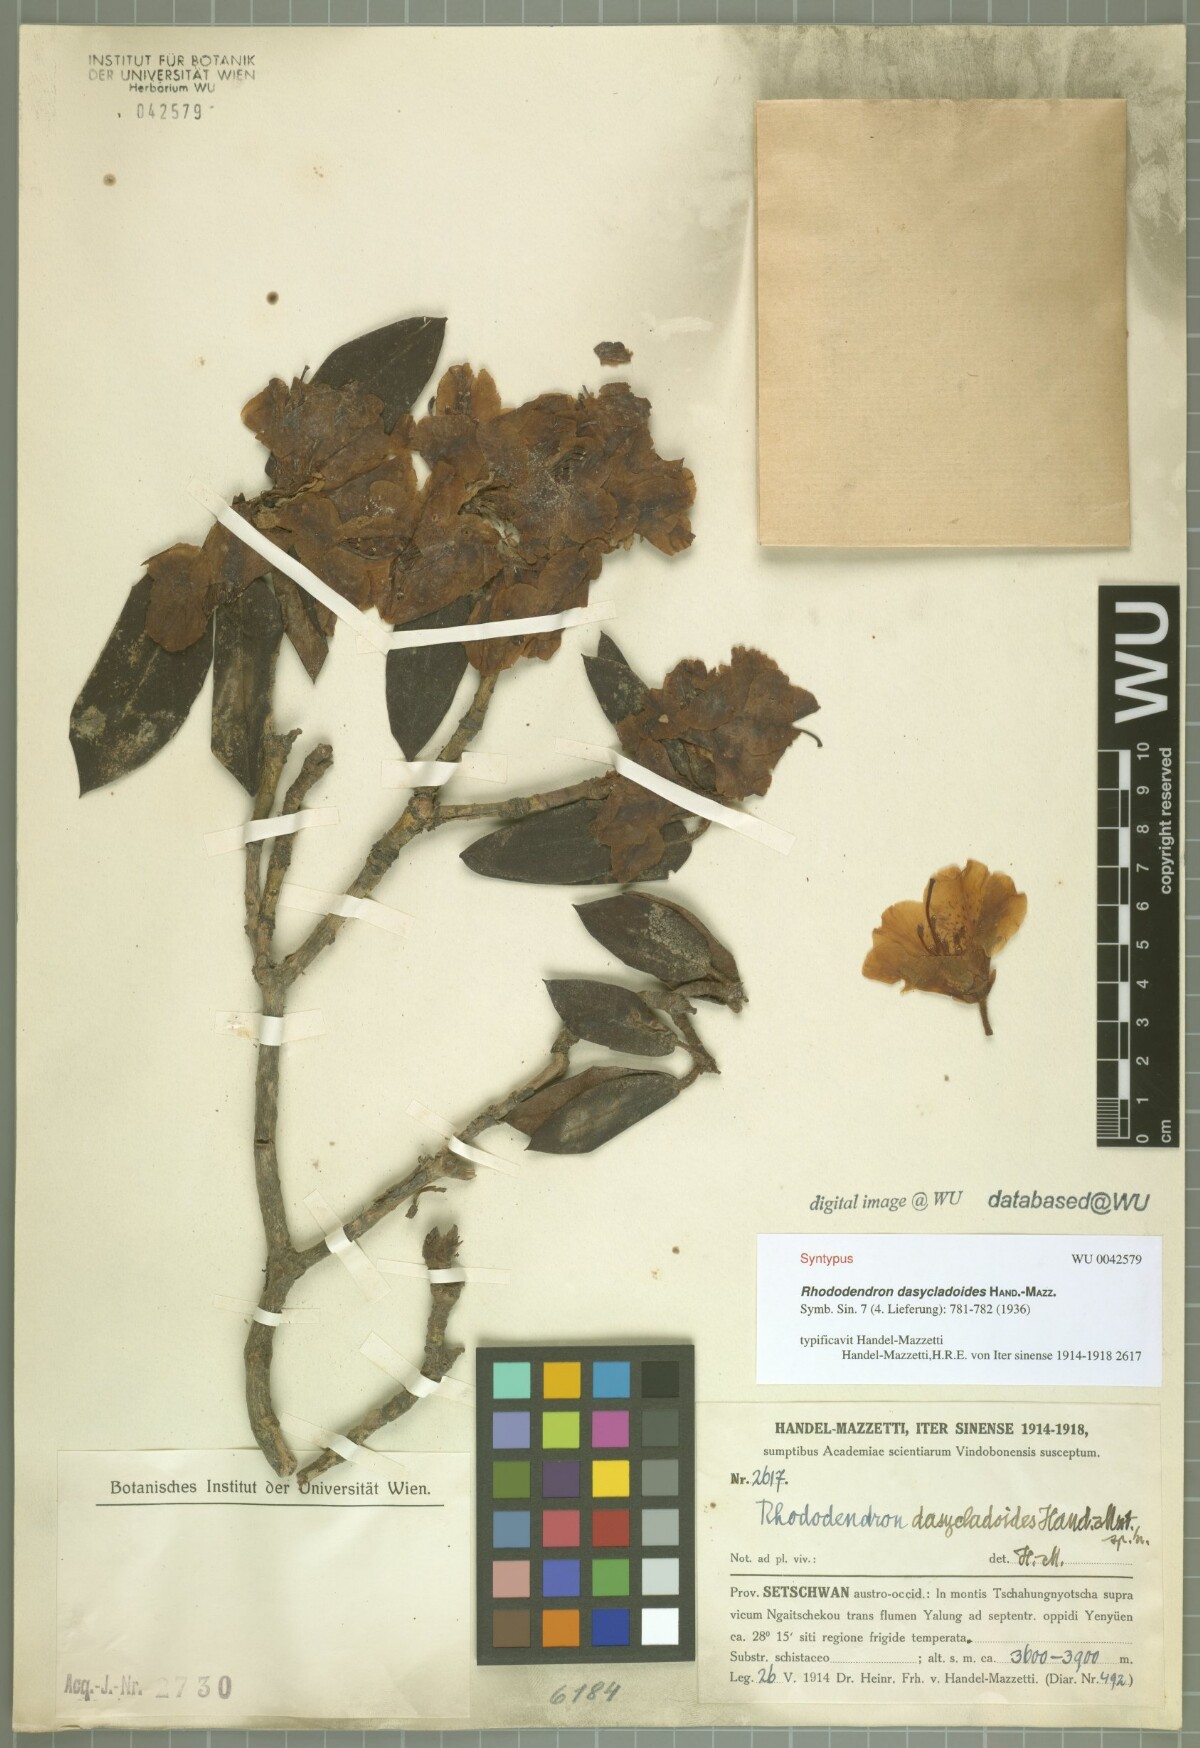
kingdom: Plantae
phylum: Tracheophyta
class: Magnoliopsida
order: Ericales
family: Ericaceae
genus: Rhododendron
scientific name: Rhododendron dasycladoides
